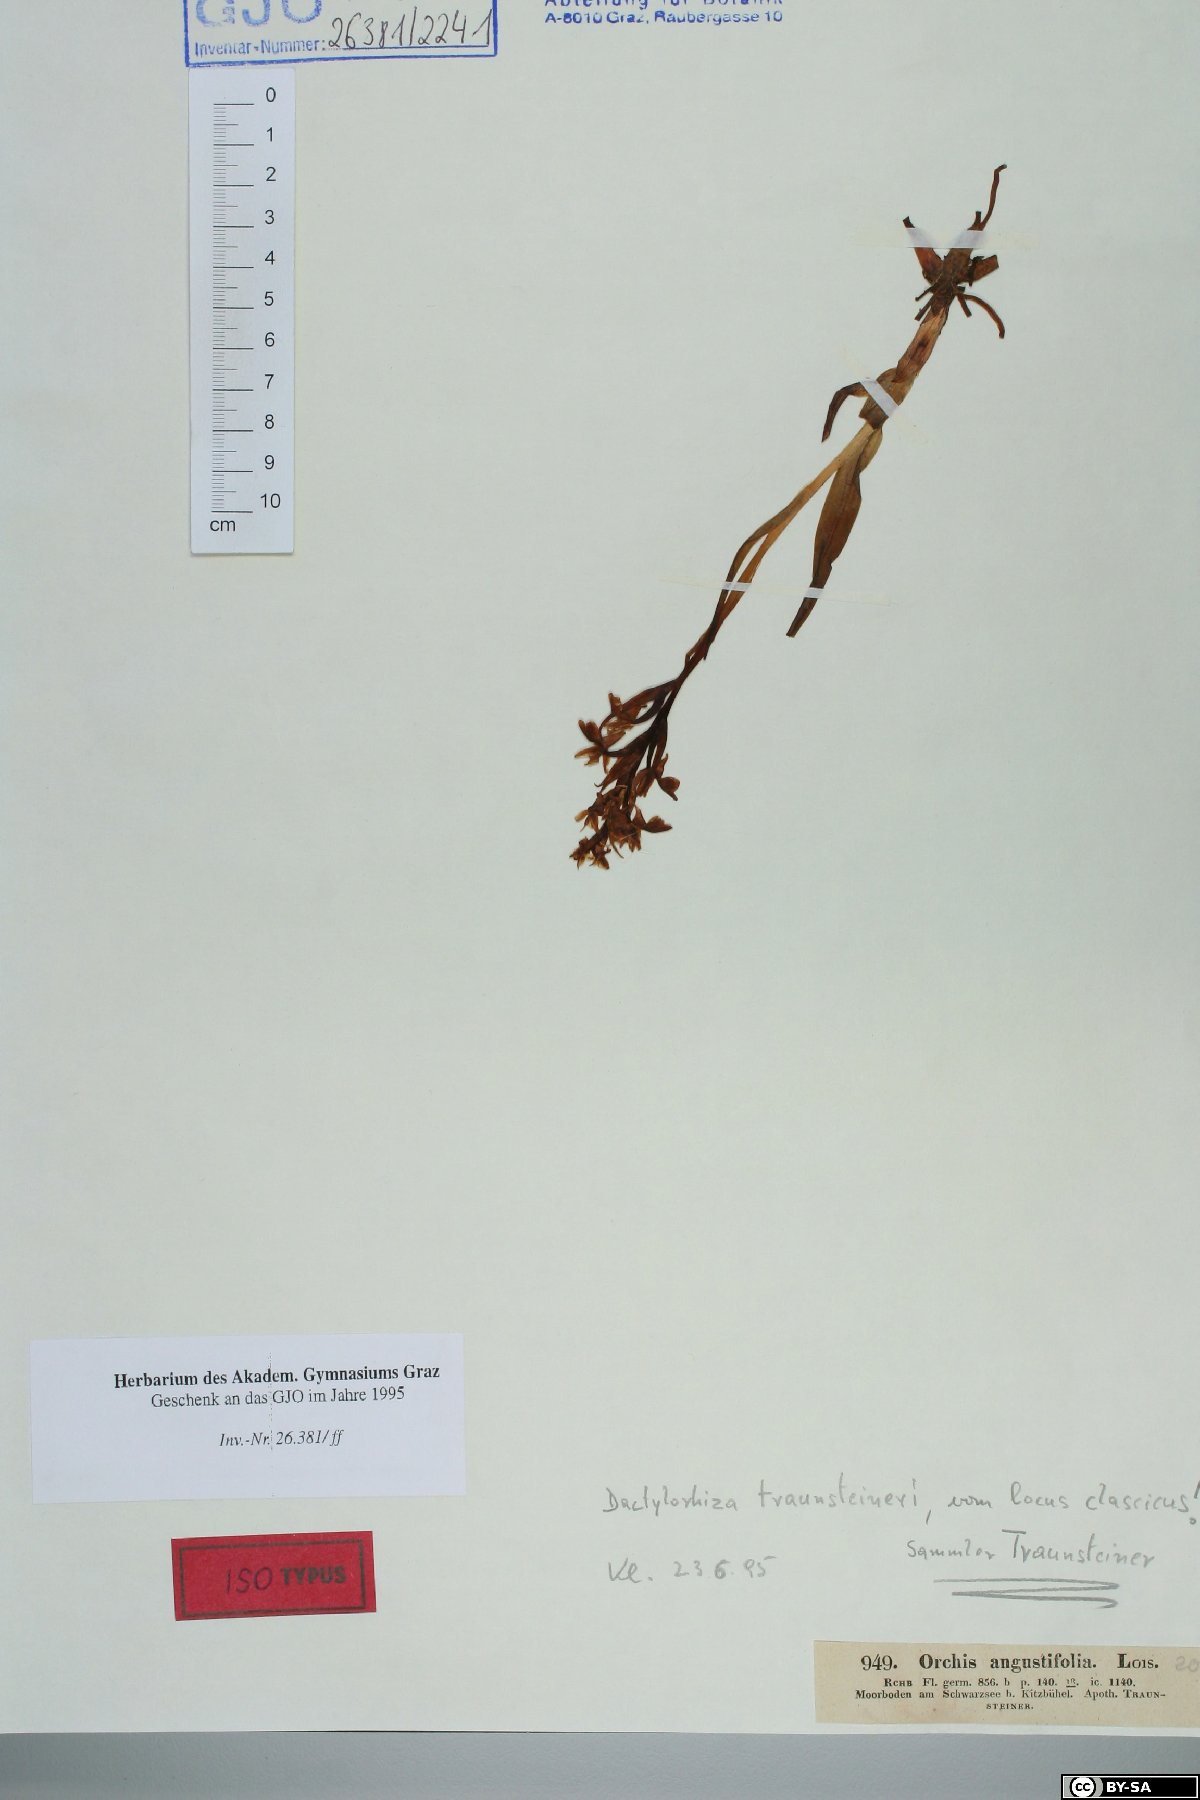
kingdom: Plantae
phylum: Tracheophyta
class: Liliopsida
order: Asparagales
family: Orchidaceae
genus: Dactylorhiza
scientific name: Dactylorhiza majalis
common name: Marsh orchid
